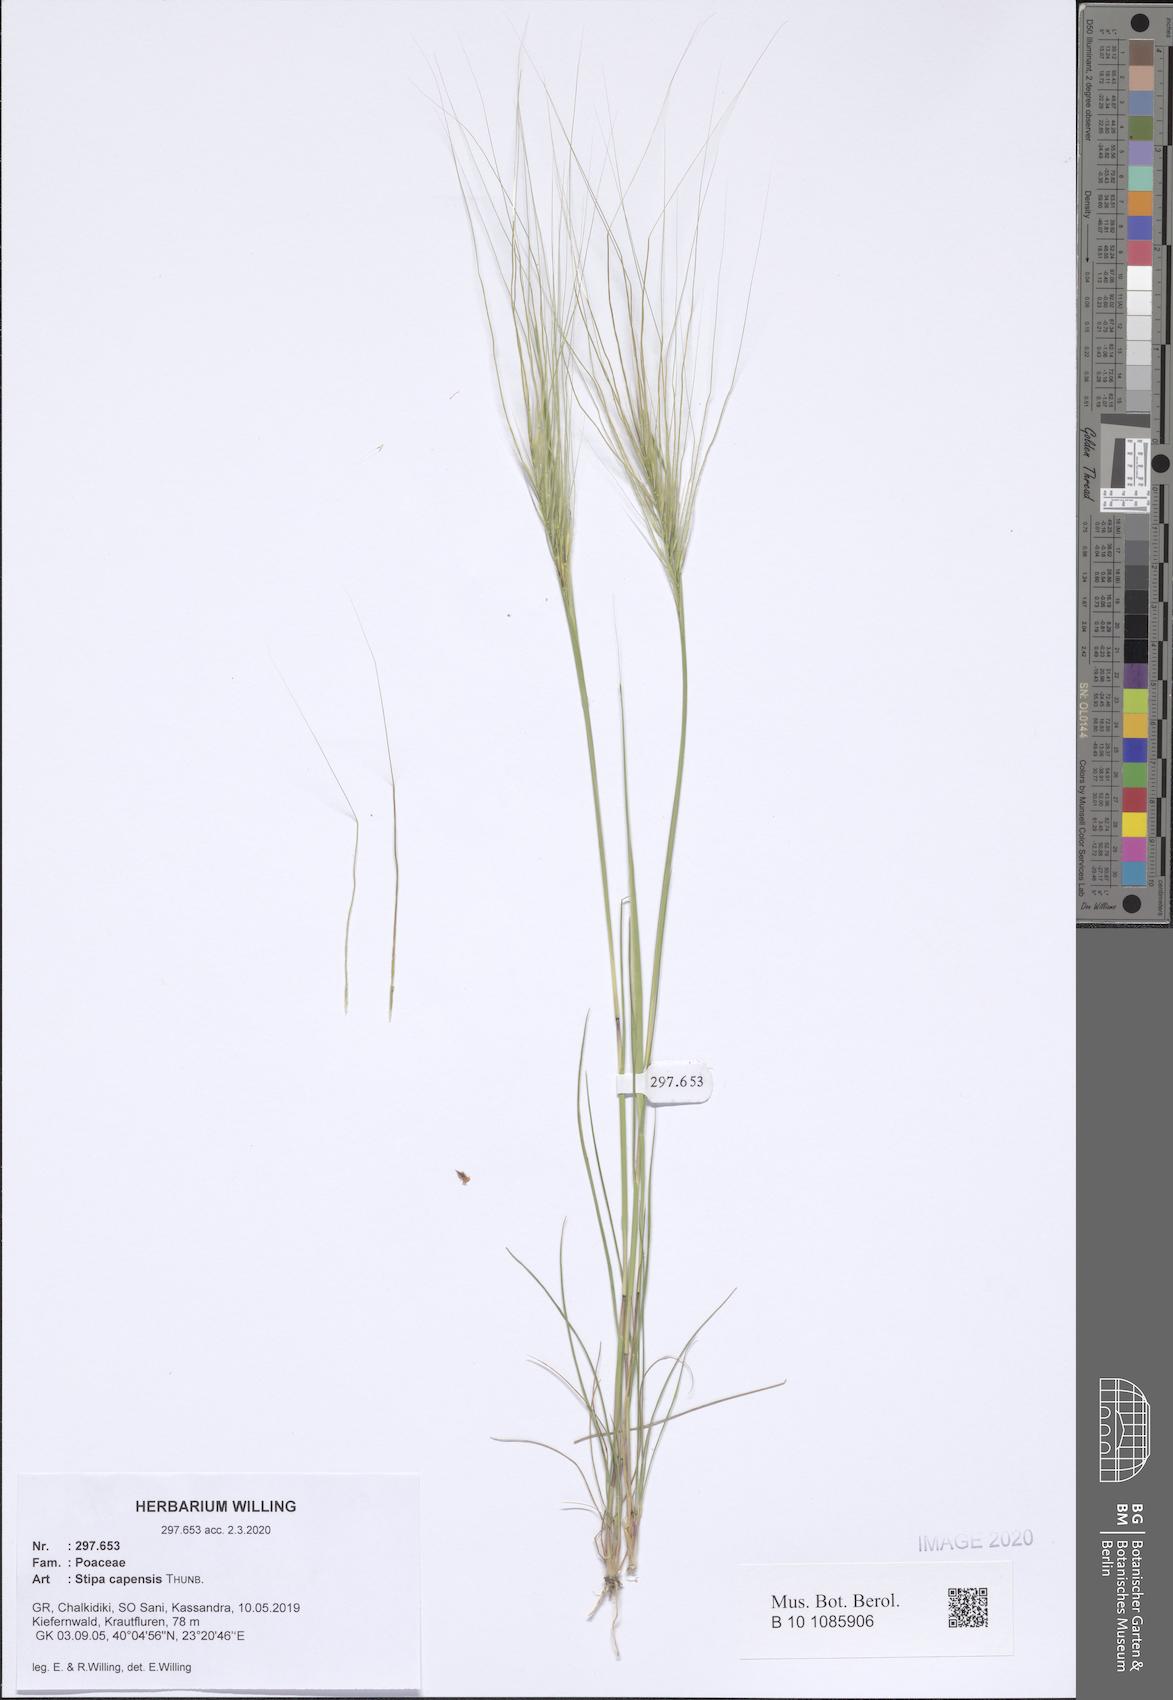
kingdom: Plantae
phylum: Tracheophyta
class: Liliopsida
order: Poales
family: Poaceae
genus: Stipellula
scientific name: Stipellula capensis
